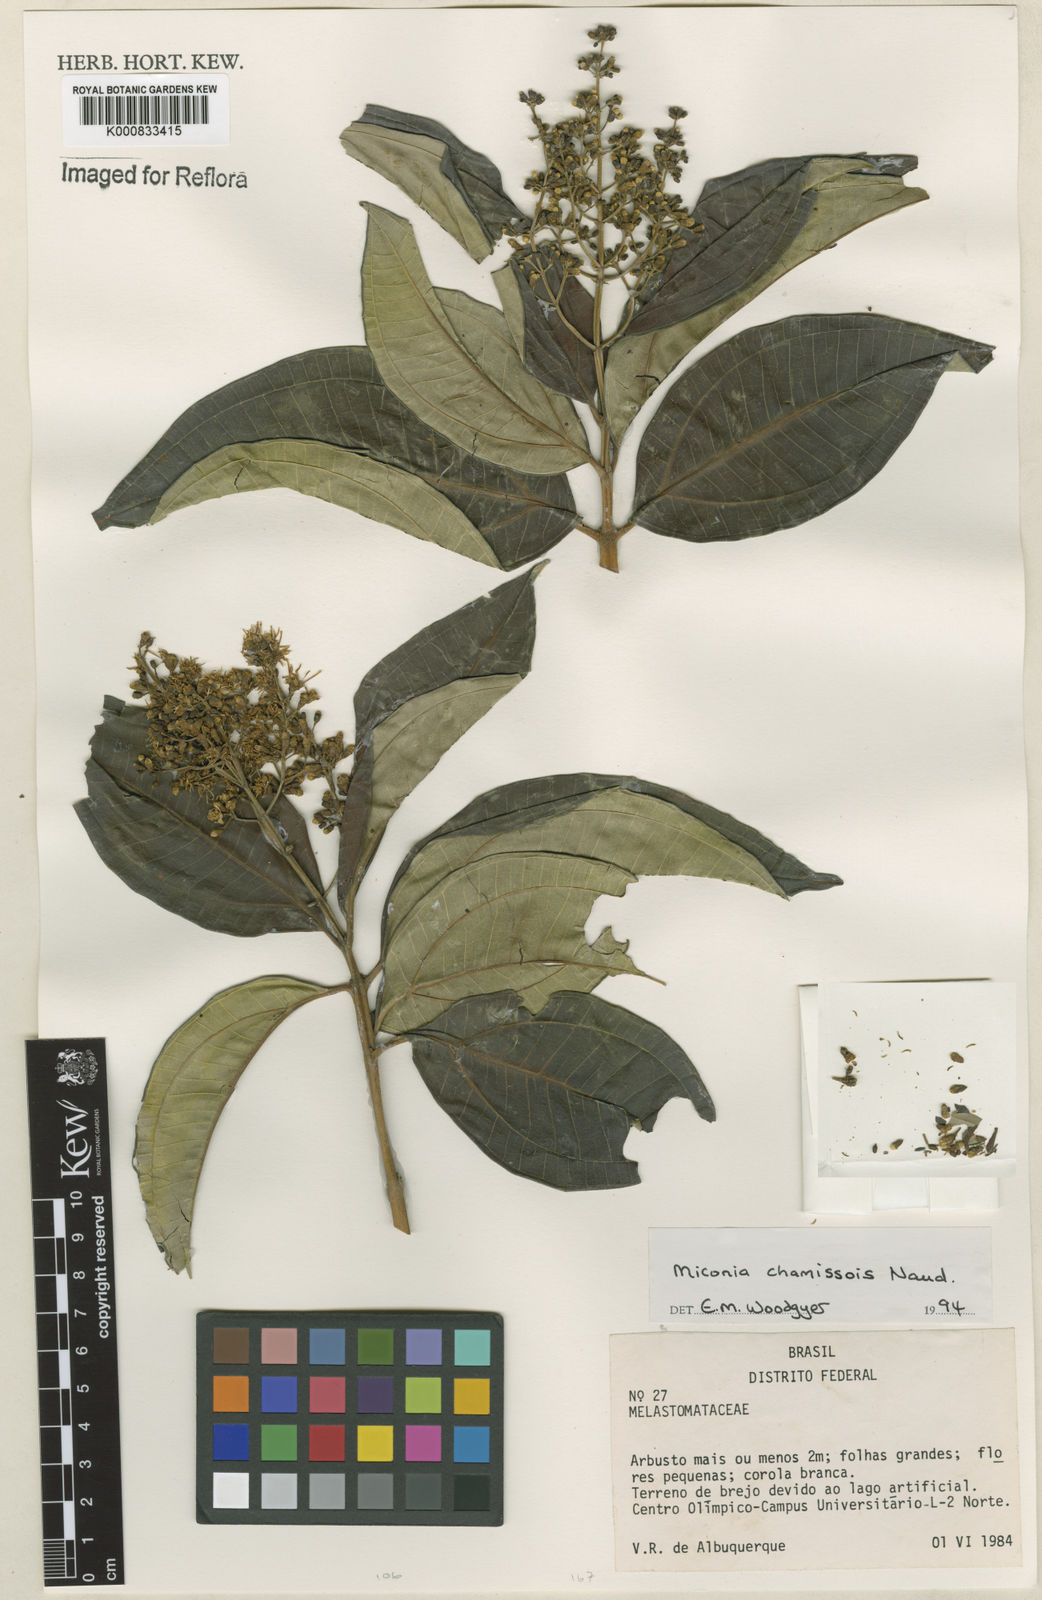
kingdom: Plantae
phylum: Tracheophyta
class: Magnoliopsida
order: Myrtales
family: Melastomataceae
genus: Miconia
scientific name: Miconia chamissois
